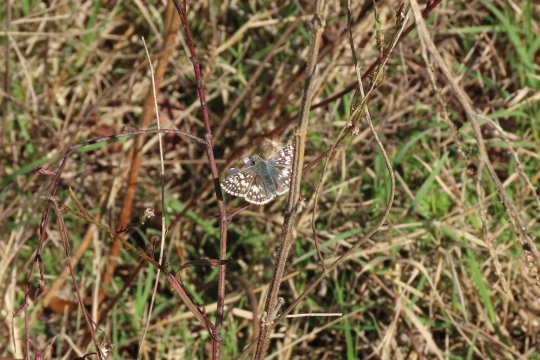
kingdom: Animalia
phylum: Arthropoda
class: Insecta
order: Lepidoptera
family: Hesperiidae
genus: Pyrgus
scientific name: Pyrgus communis
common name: Common Checkered-Skipper
